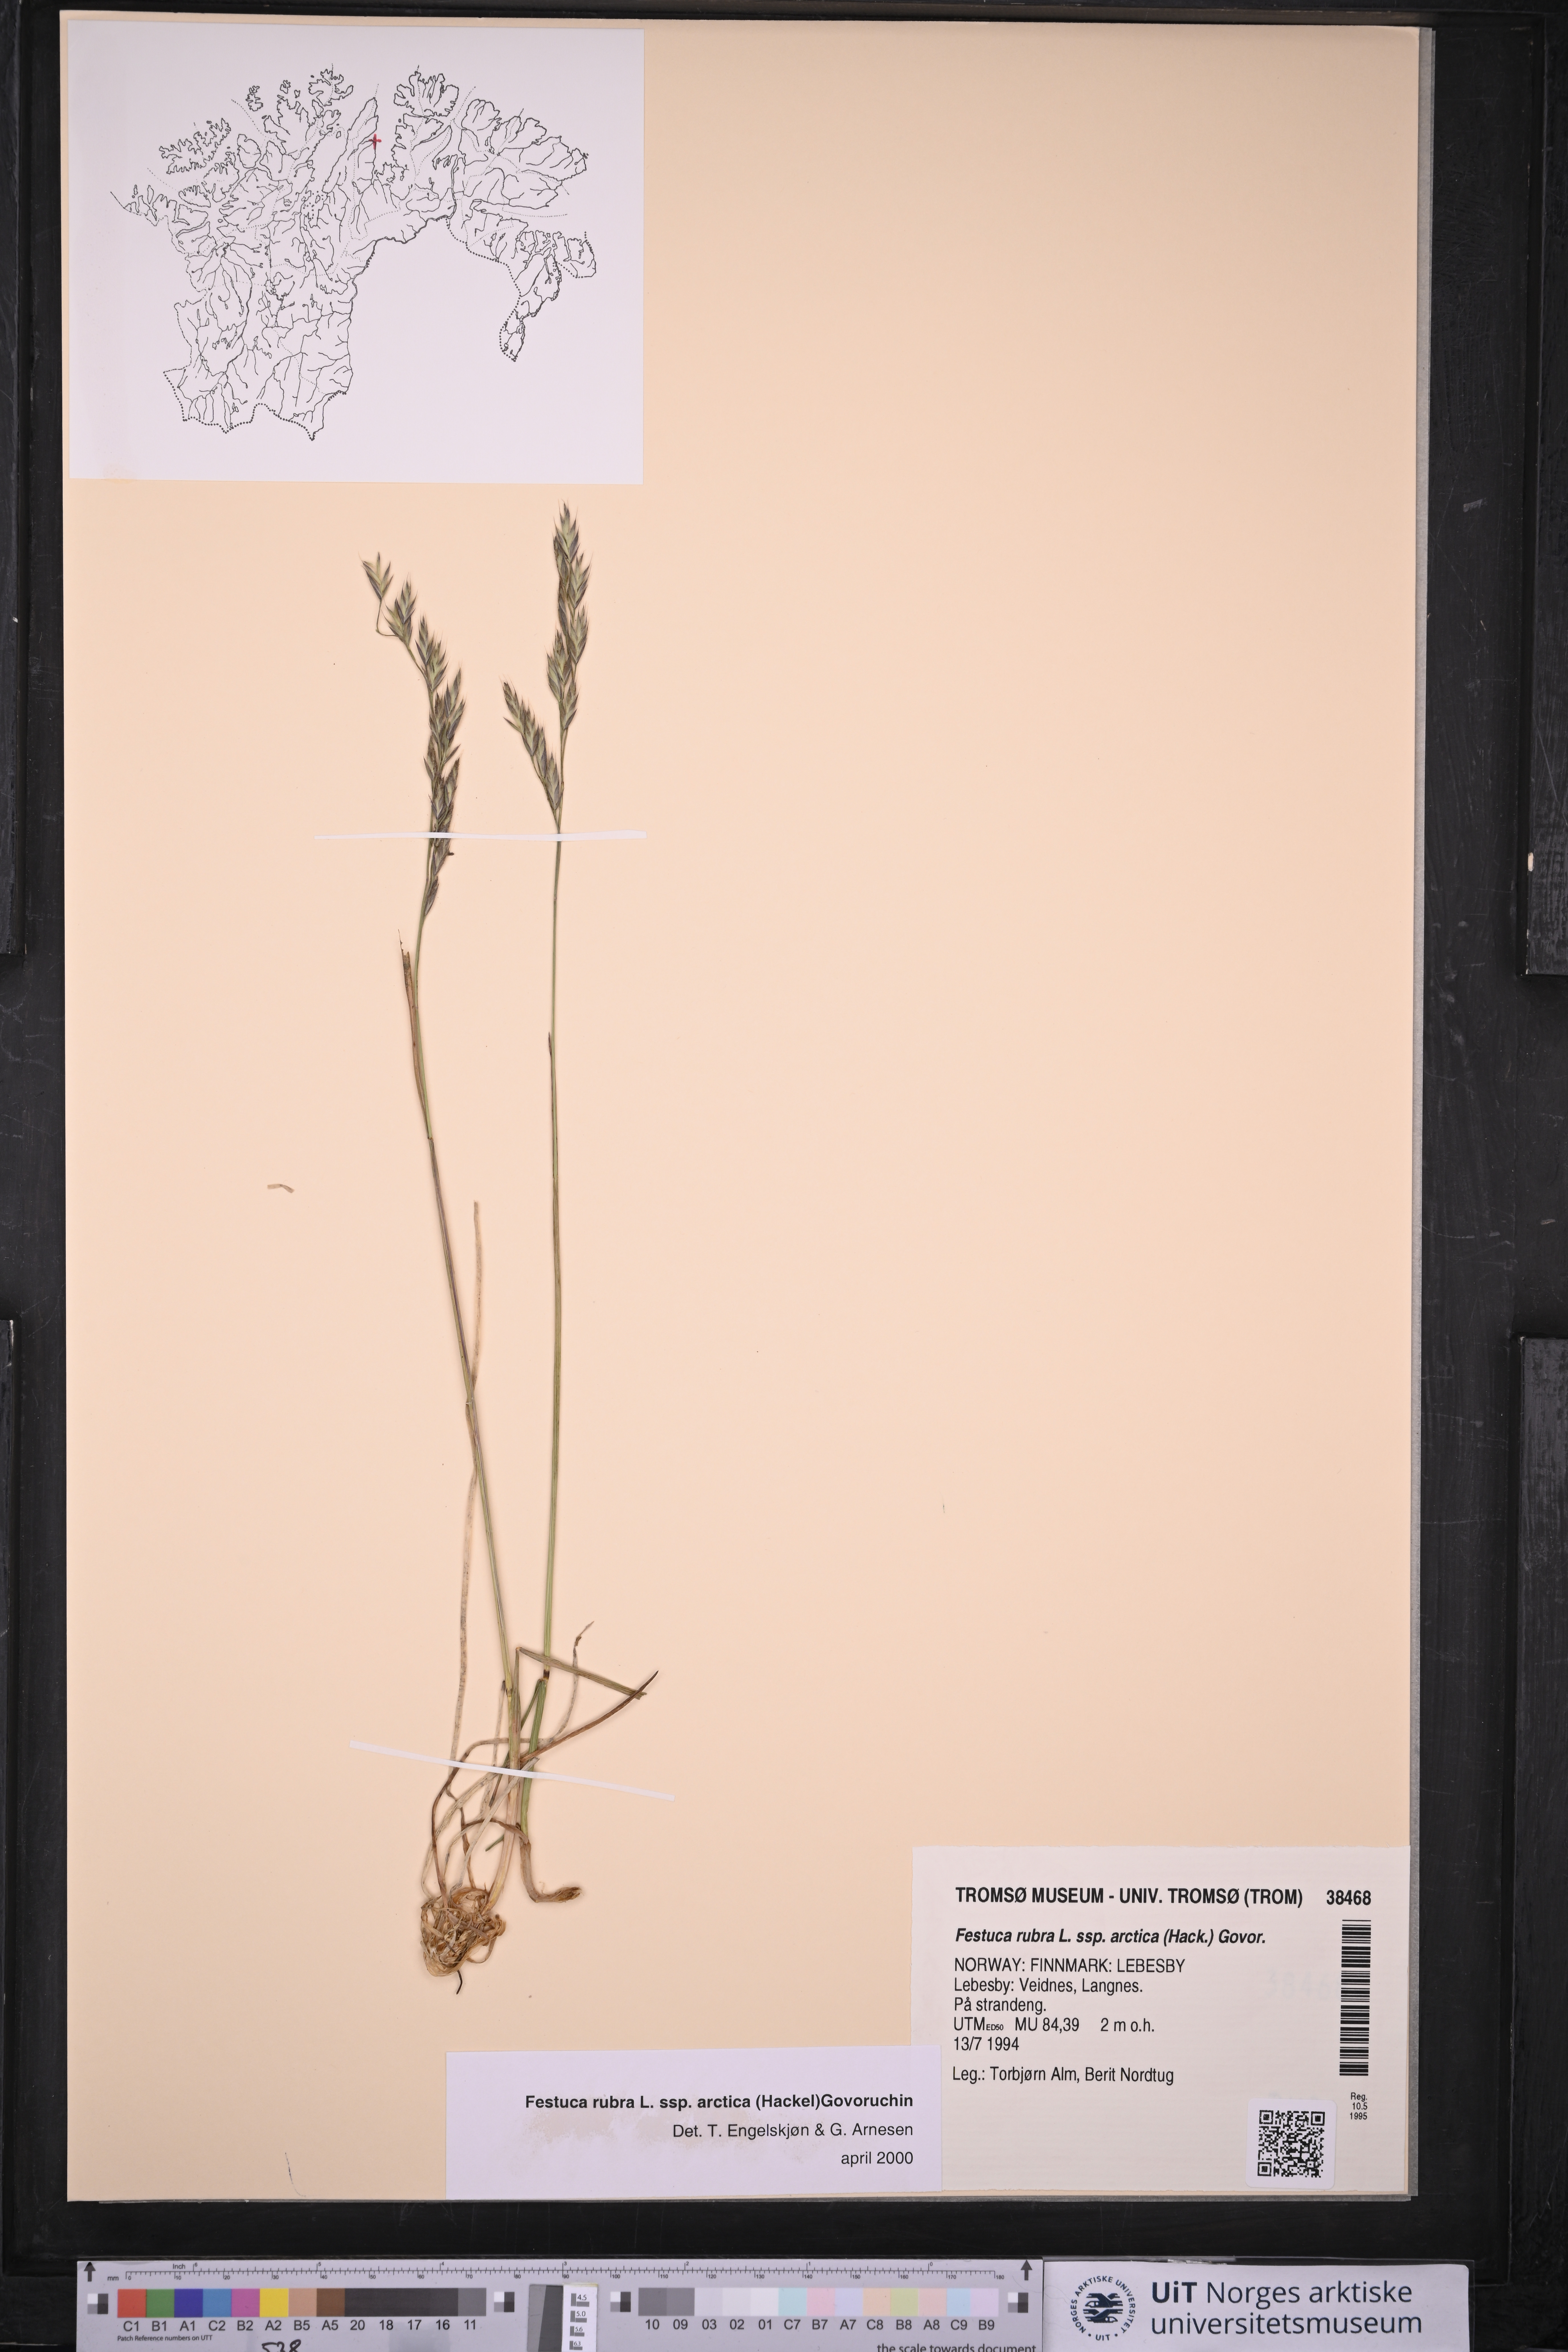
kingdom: Plantae
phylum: Tracheophyta
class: Liliopsida
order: Poales
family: Poaceae
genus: Festuca
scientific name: Festuca richardsonii
